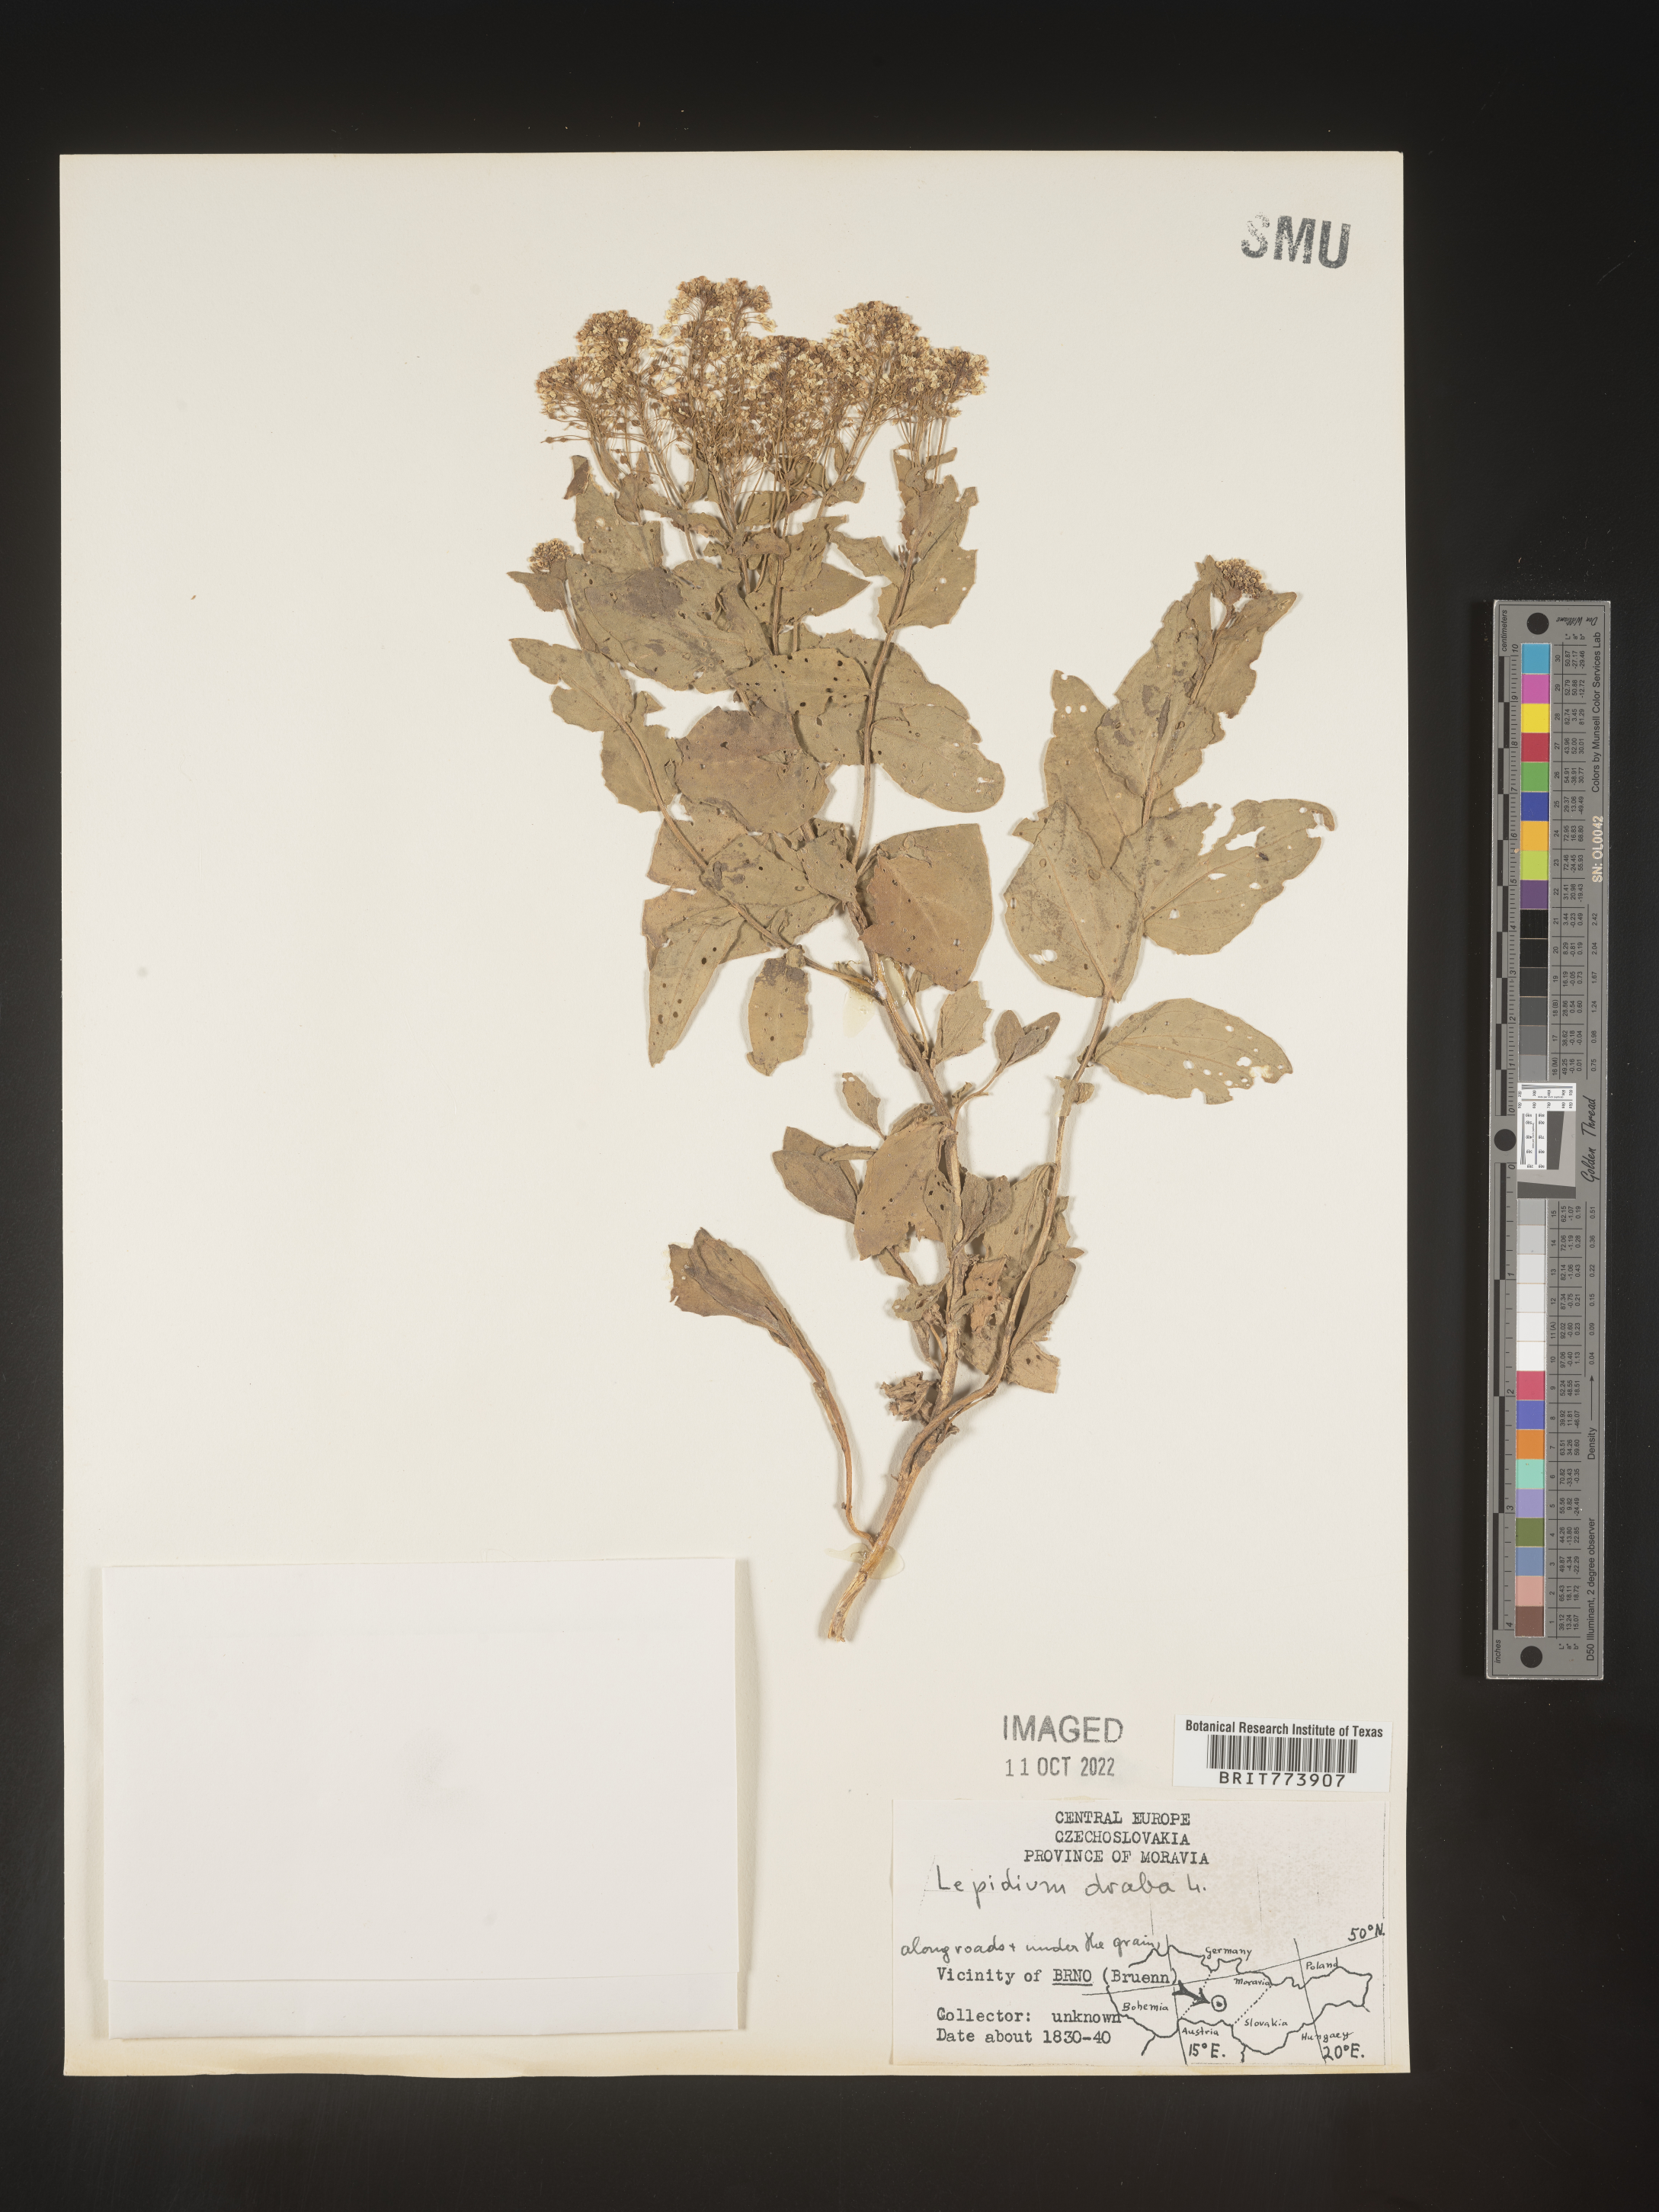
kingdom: Plantae
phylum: Tracheophyta
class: Magnoliopsida
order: Brassicales
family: Brassicaceae
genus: Lepidium
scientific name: Lepidium
